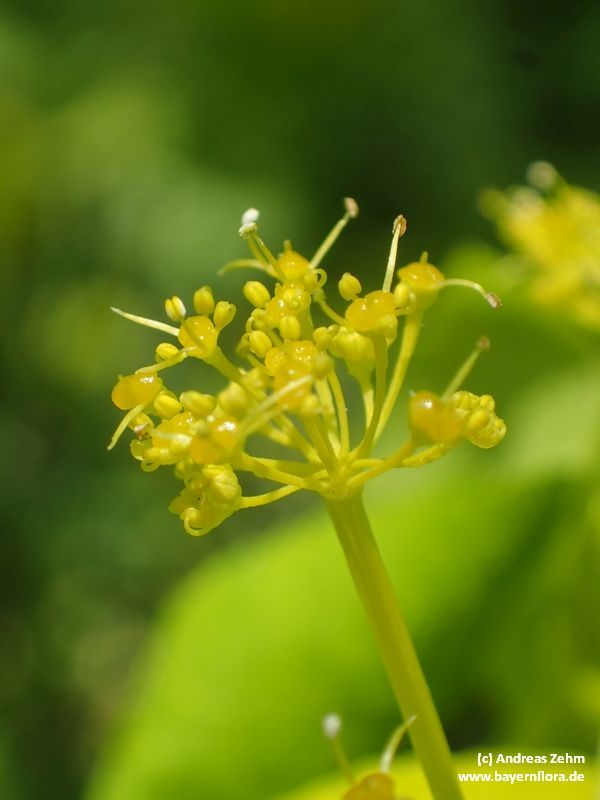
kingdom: Plantae
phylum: Tracheophyta
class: Magnoliopsida
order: Apiales
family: Apiaceae
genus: Smyrnium
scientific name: Smyrnium perfoliatum
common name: Perfoliate alexanders
